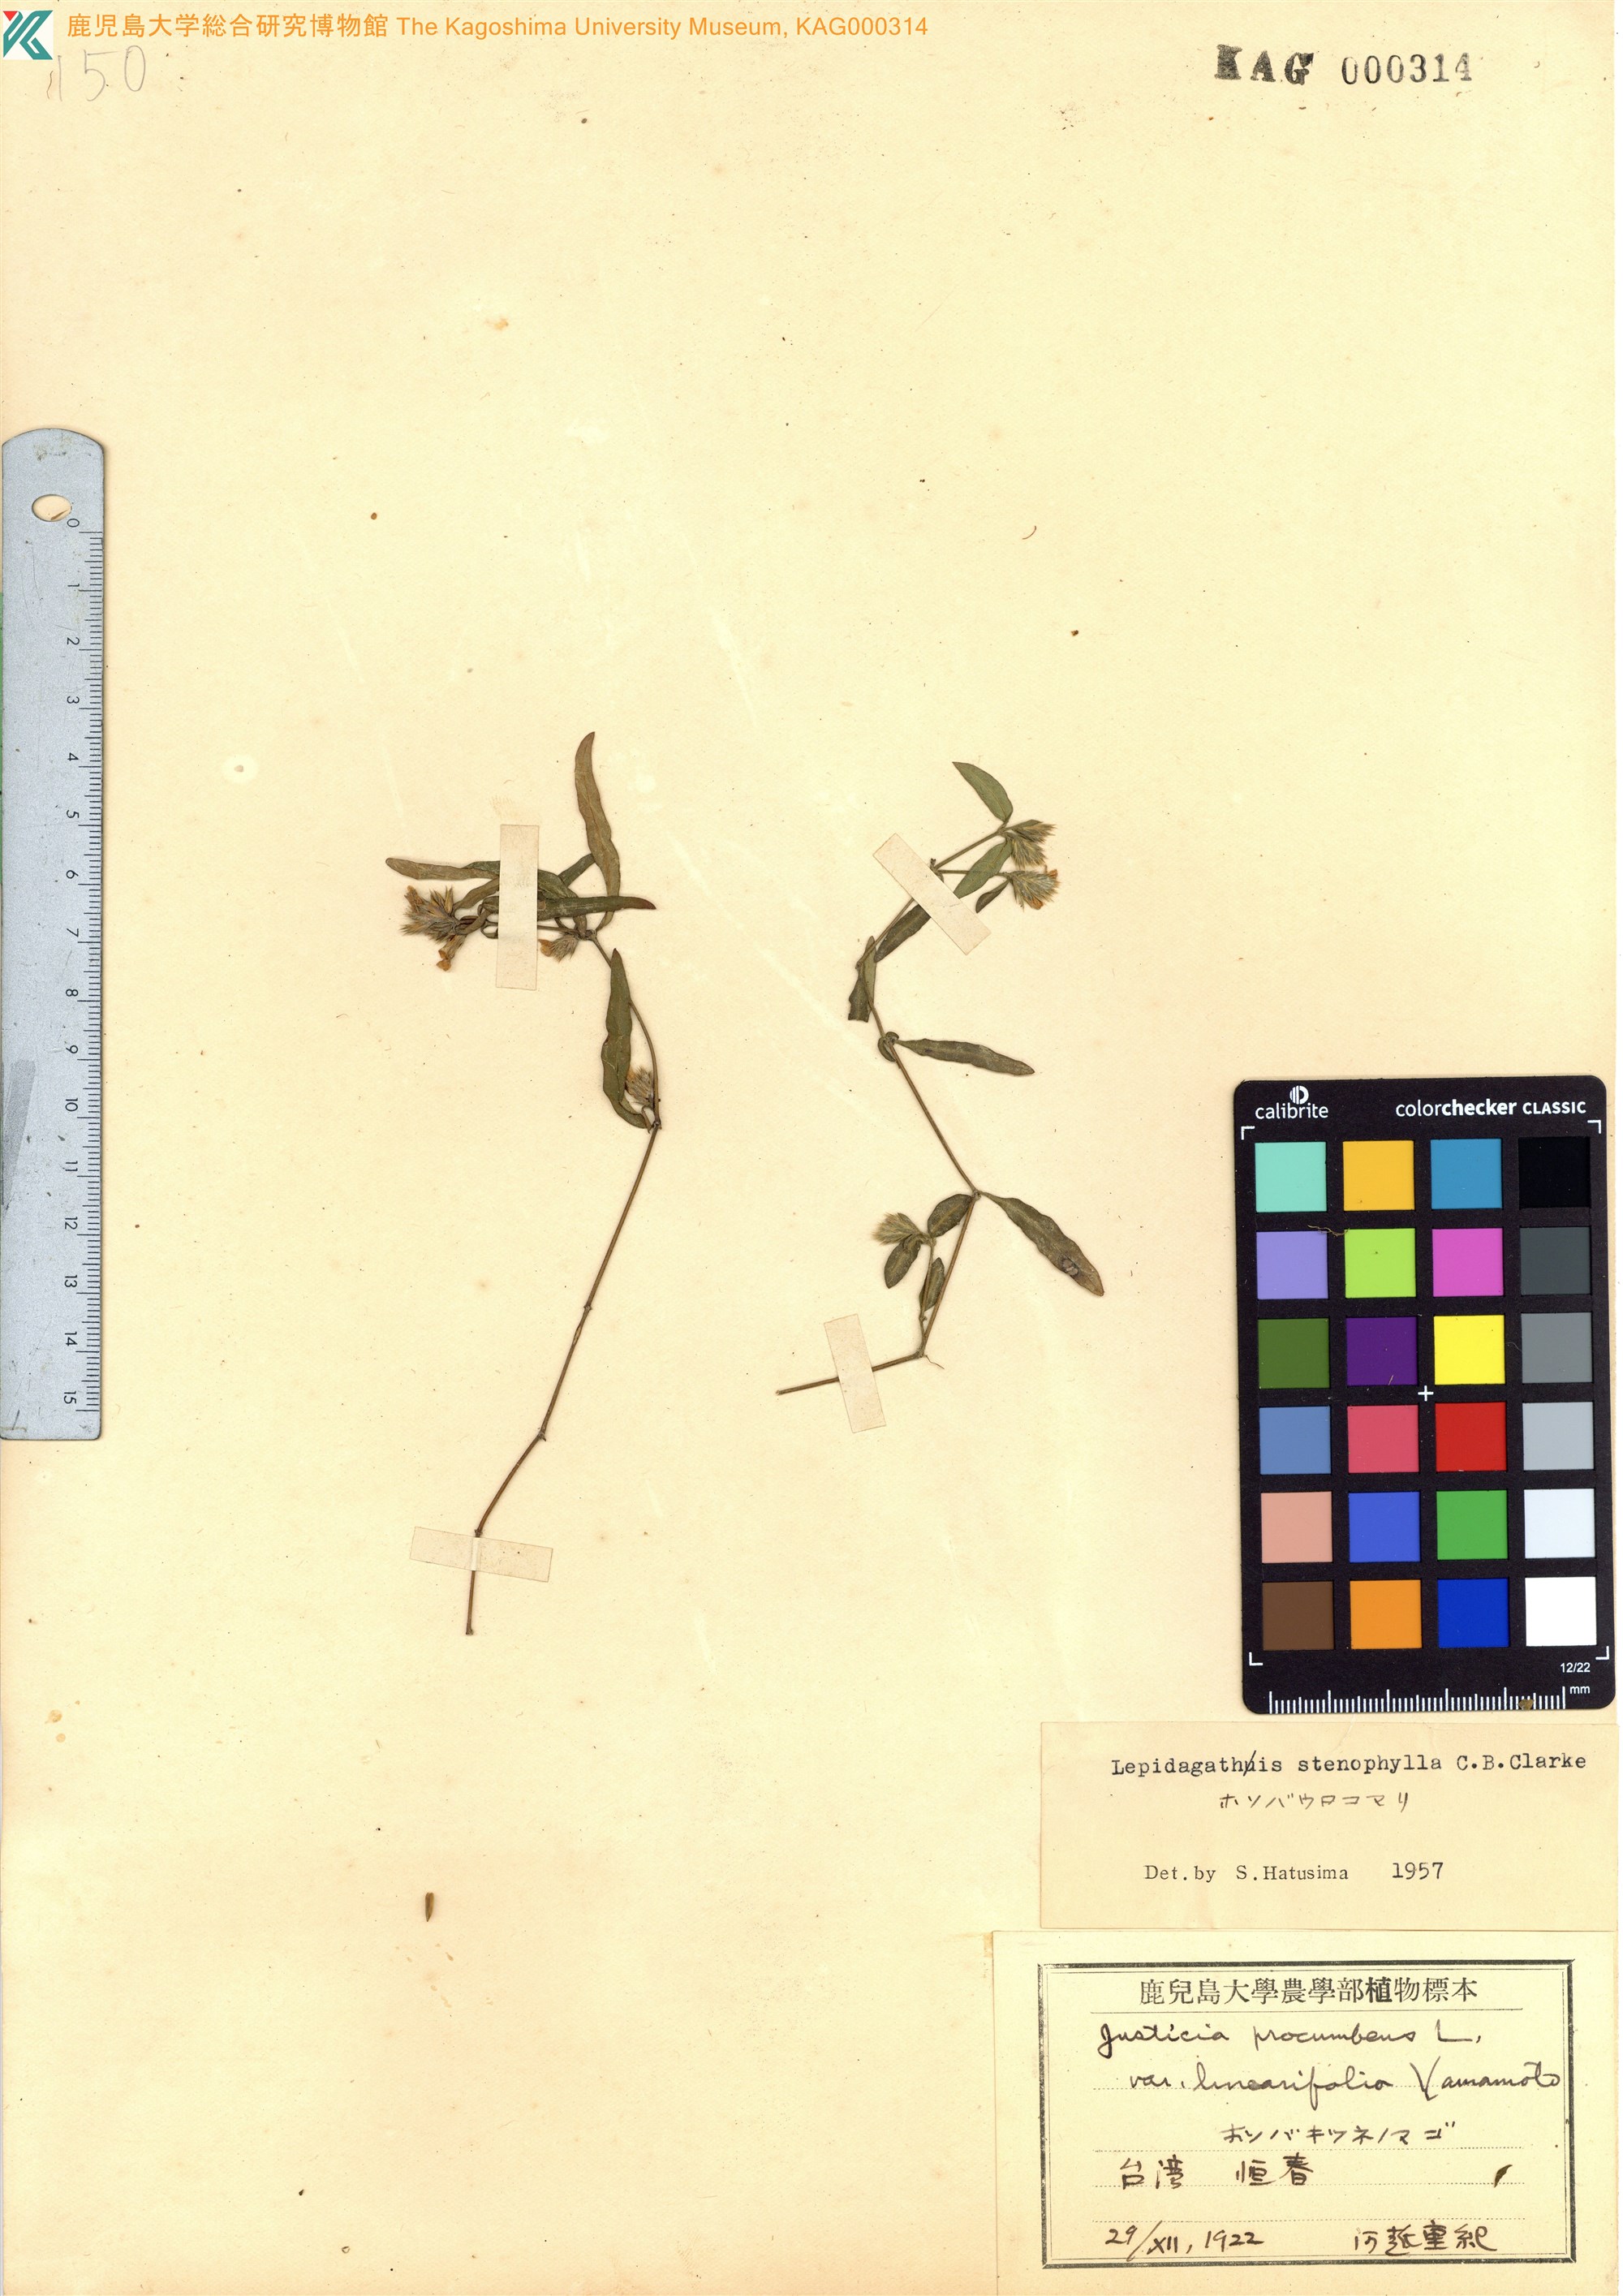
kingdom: Plantae
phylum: Tracheophyta
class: Magnoliopsida
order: Lamiales
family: Acanthaceae
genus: Lepidagathis
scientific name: Lepidagathis stenophylla
